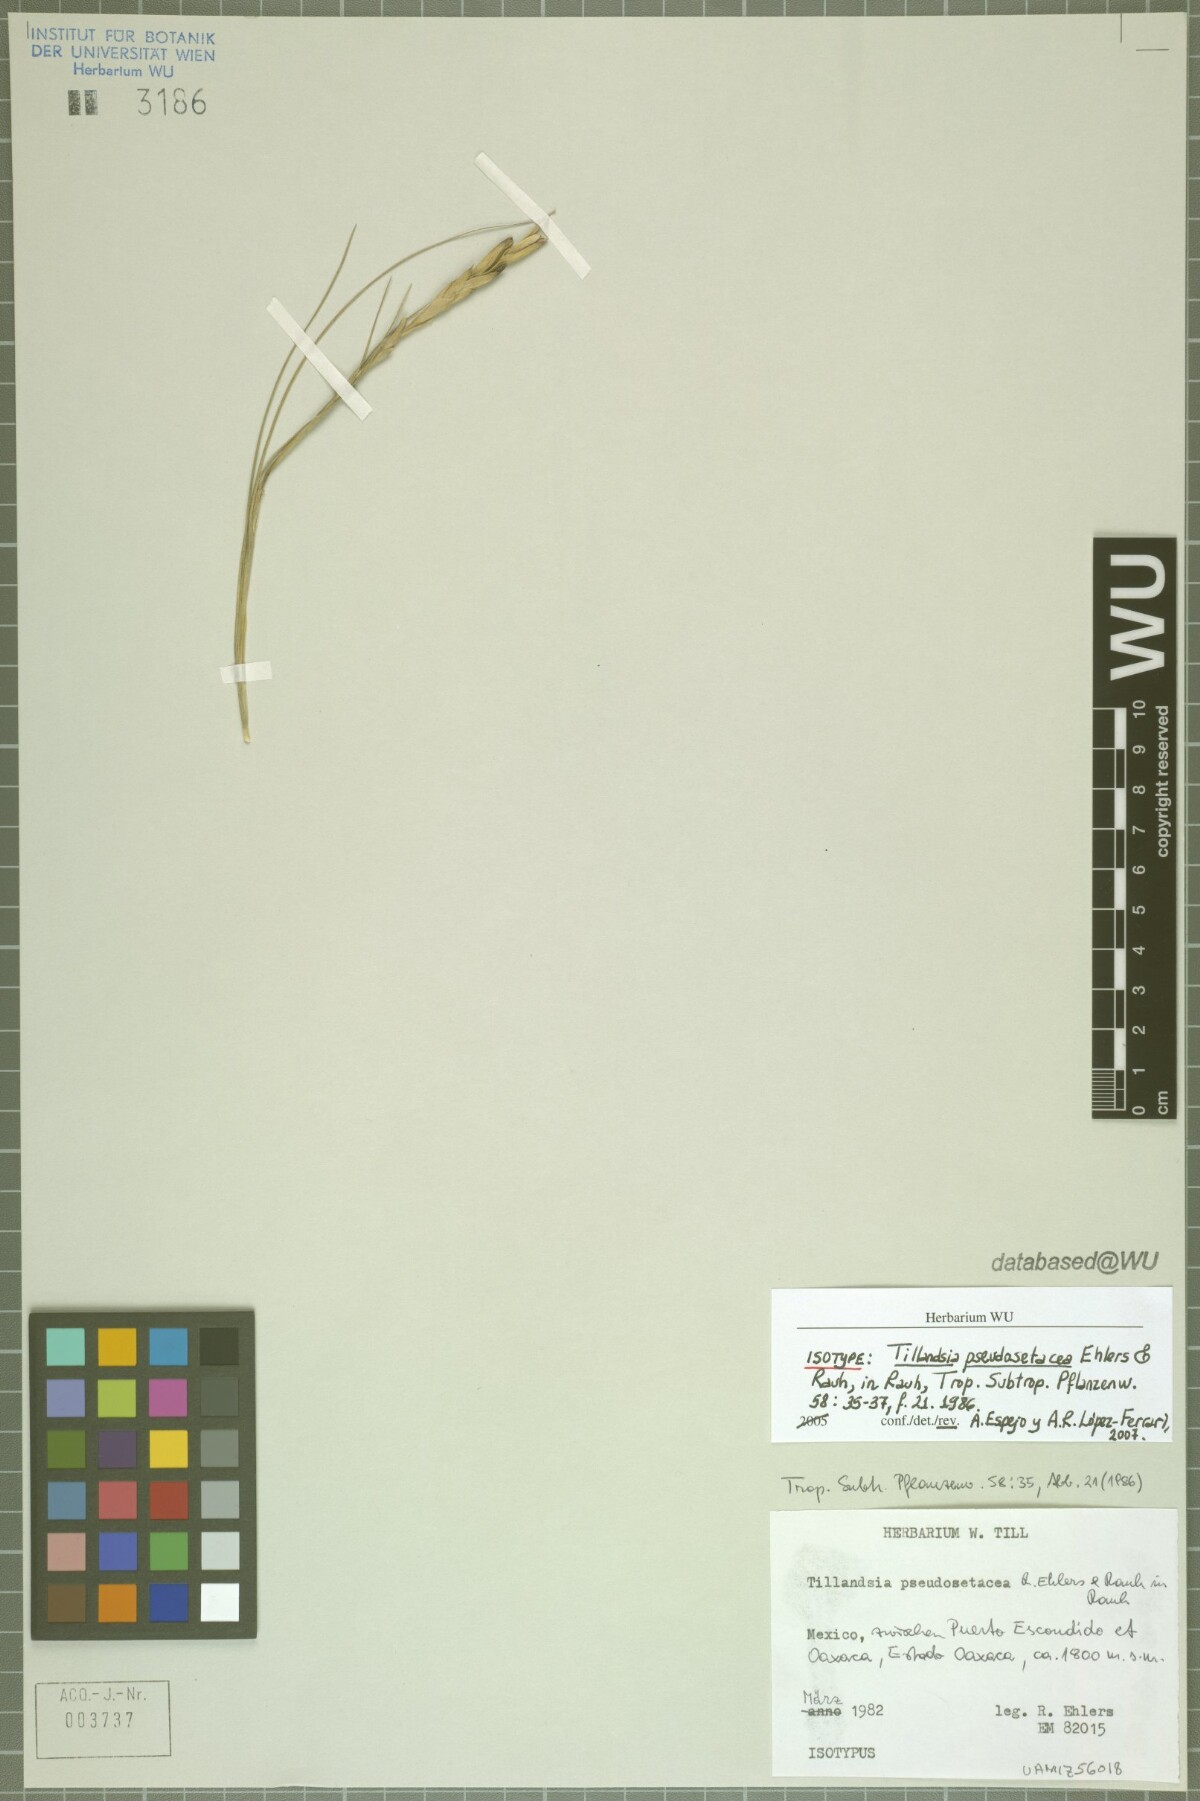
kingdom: Plantae
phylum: Tracheophyta
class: Liliopsida
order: Poales
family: Bromeliaceae
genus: Tillandsia
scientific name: Tillandsia pseudosetacea
